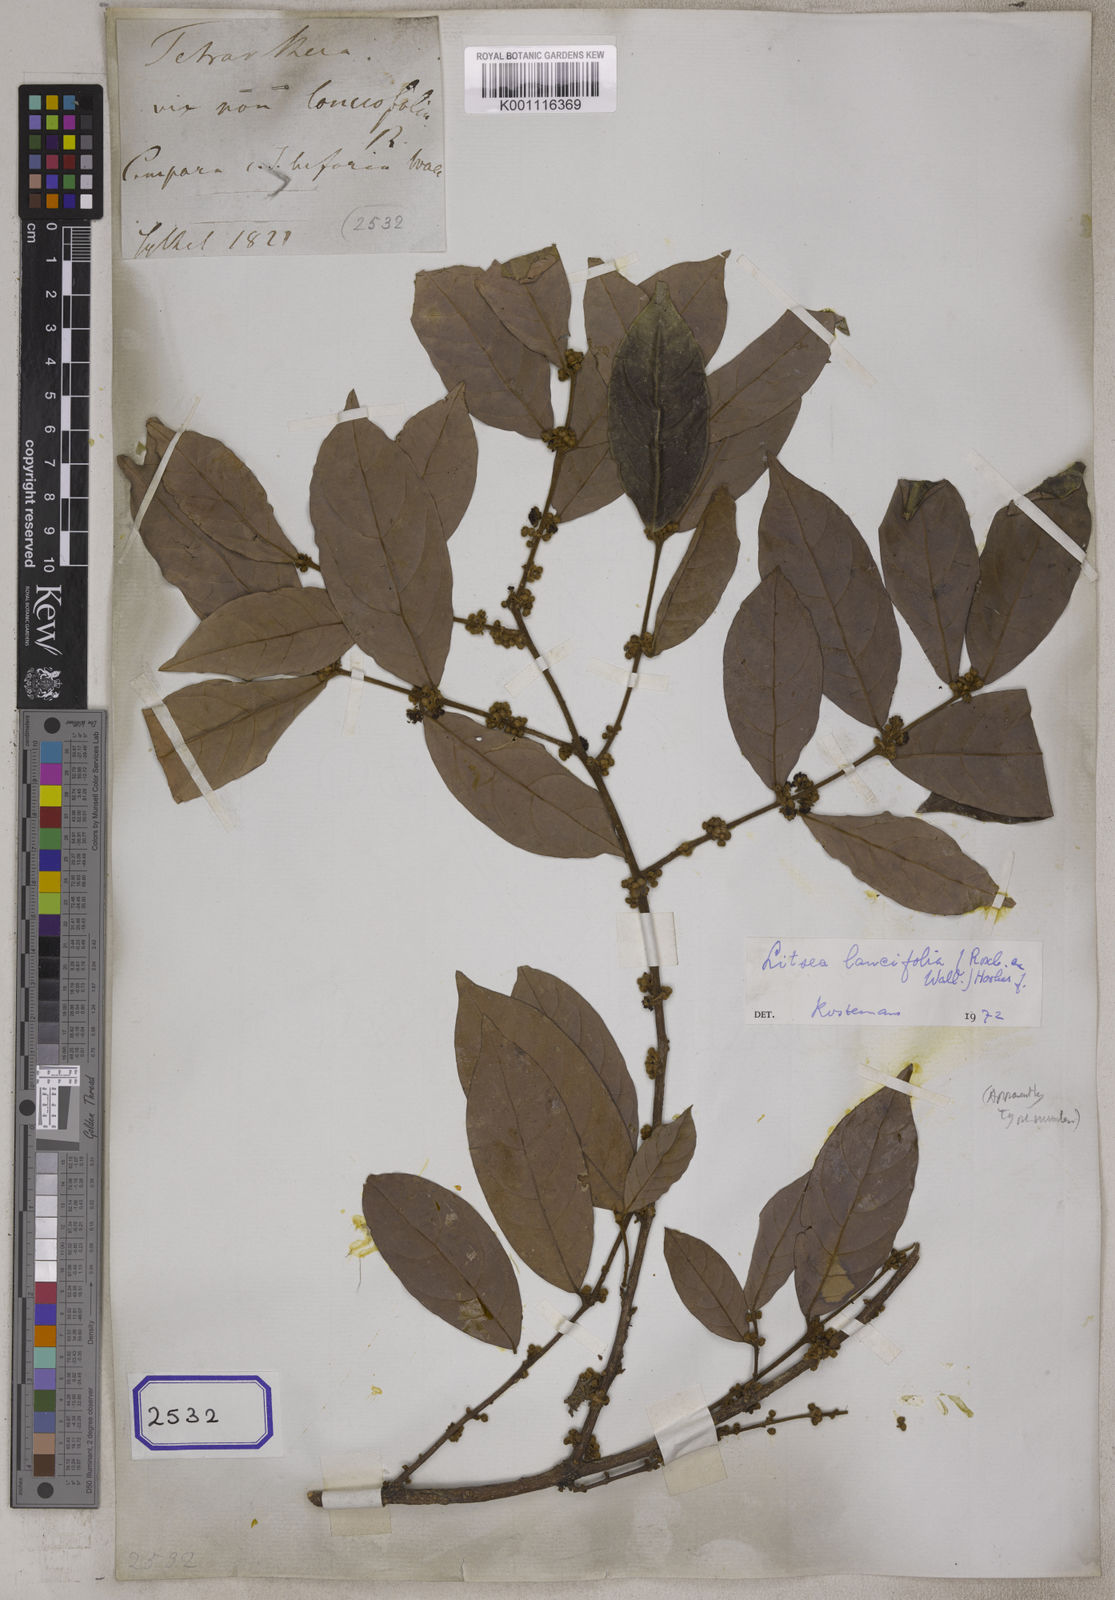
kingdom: Plantae
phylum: Tracheophyta
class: Magnoliopsida
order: Laurales
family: Lauraceae
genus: Litsea
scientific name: Litsea
